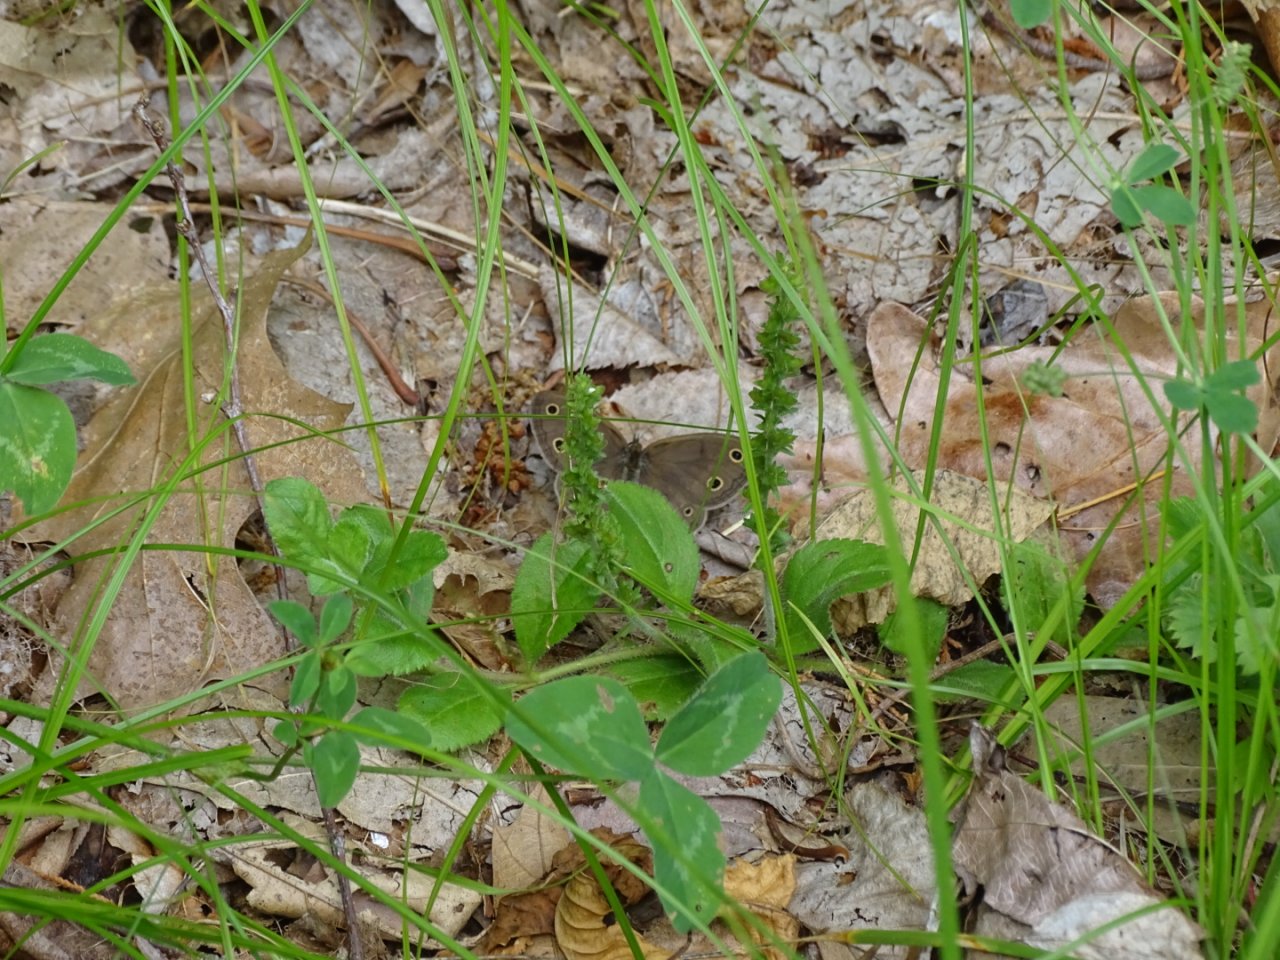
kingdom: Animalia
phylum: Arthropoda
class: Insecta
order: Lepidoptera
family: Nymphalidae
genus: Euptychia
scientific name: Euptychia cymela
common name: Little Wood Satyr
